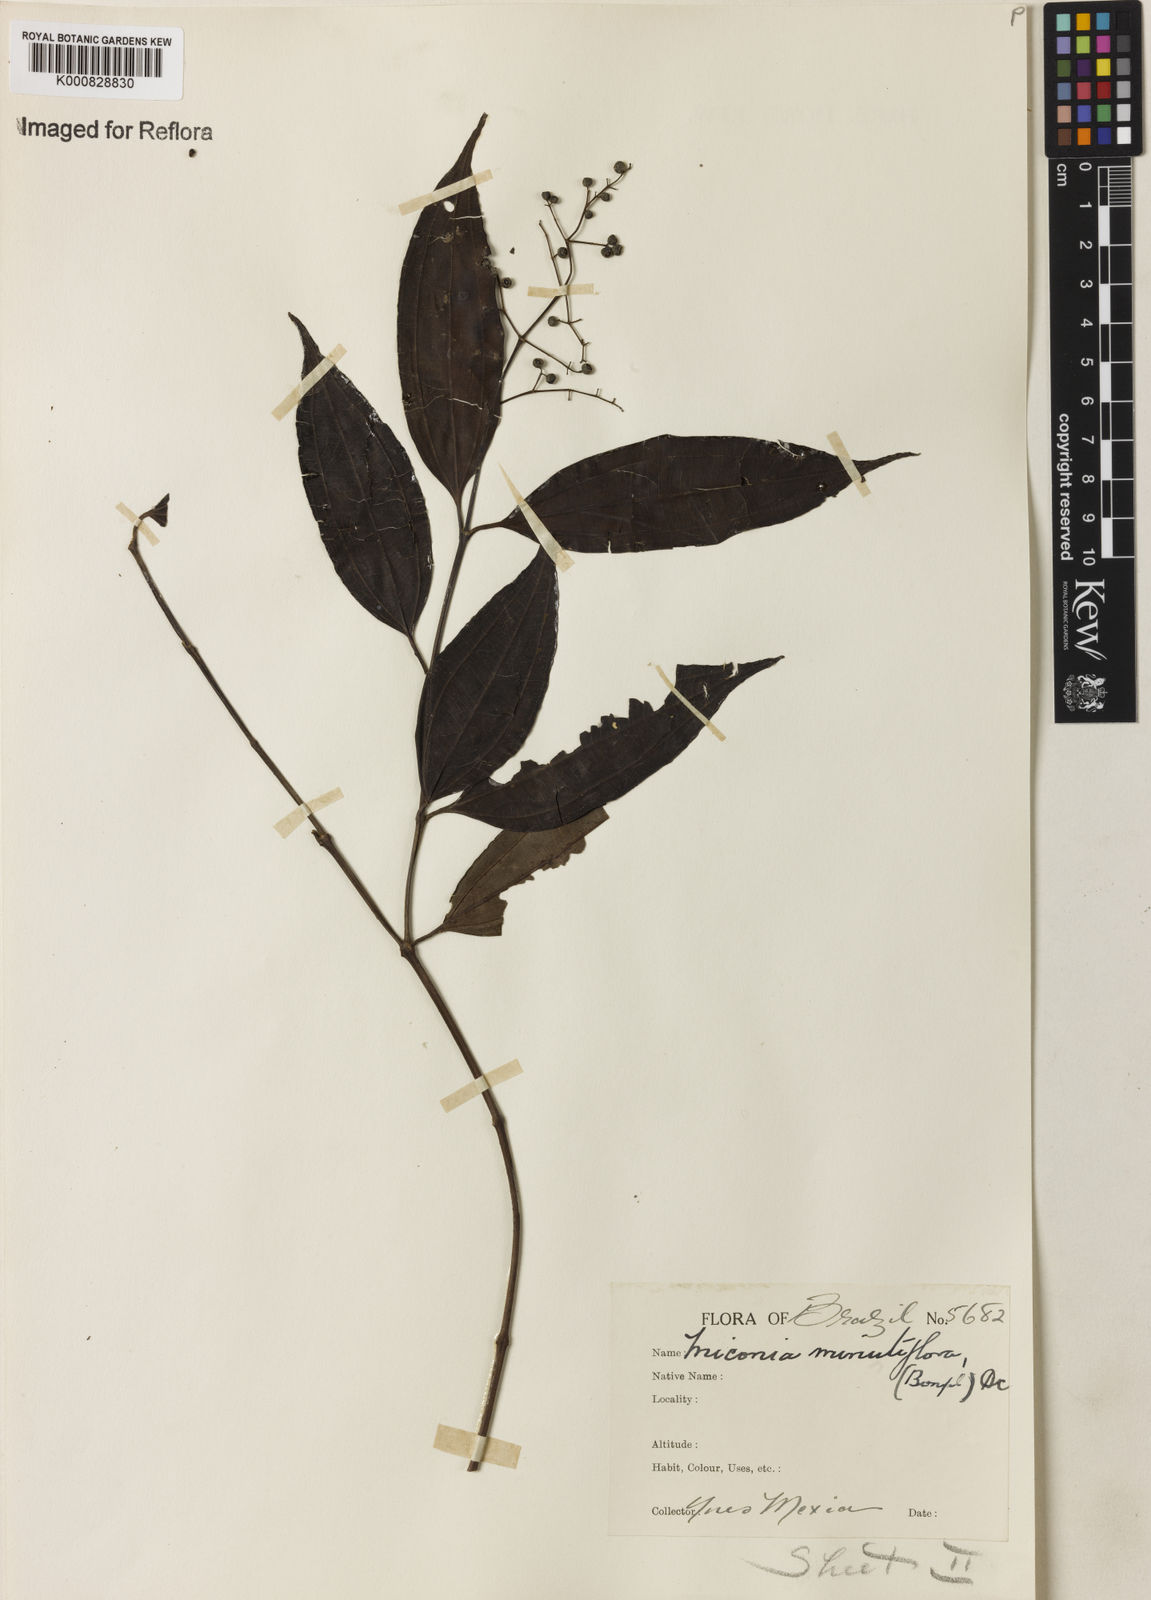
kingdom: Plantae
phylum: Tracheophyta
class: Magnoliopsida
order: Myrtales
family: Melastomataceae
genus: Miconia
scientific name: Miconia minutiflora
